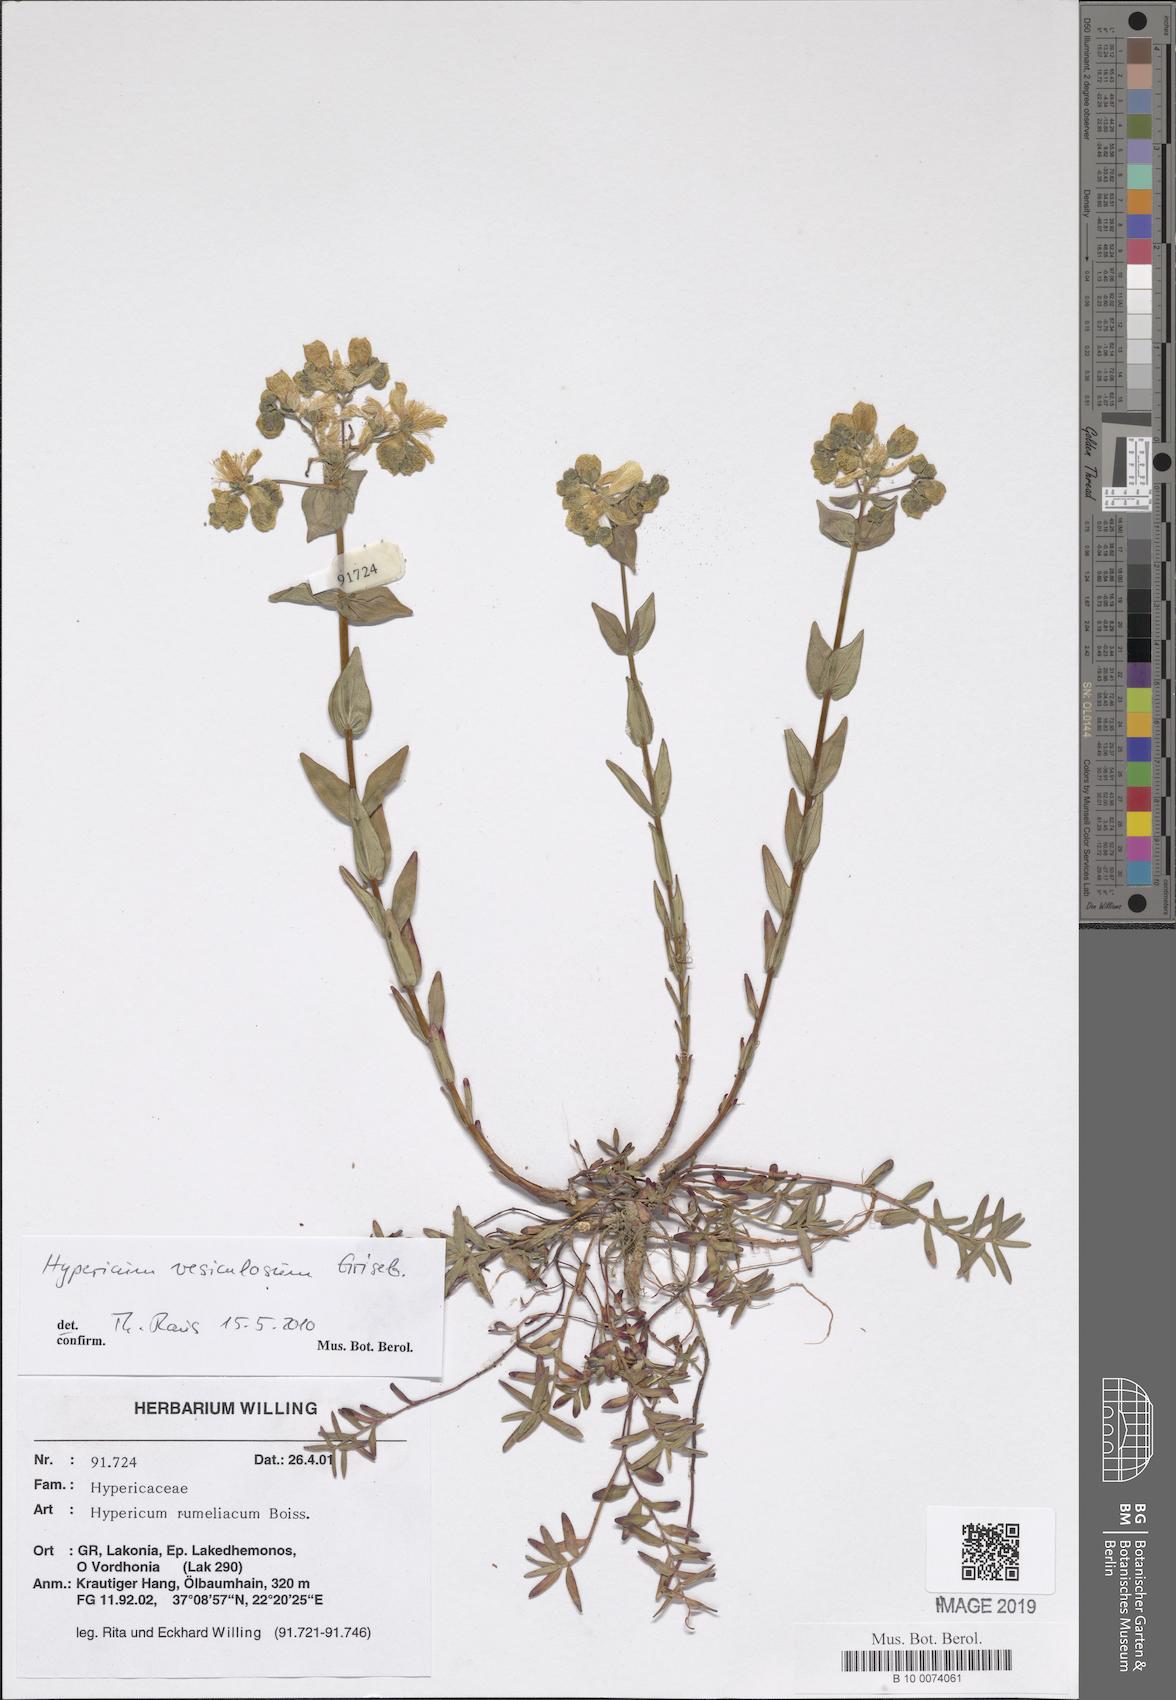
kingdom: Plantae
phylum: Tracheophyta
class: Magnoliopsida
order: Malpighiales
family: Hypericaceae
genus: Hypericum
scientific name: Hypericum perfoliatum
